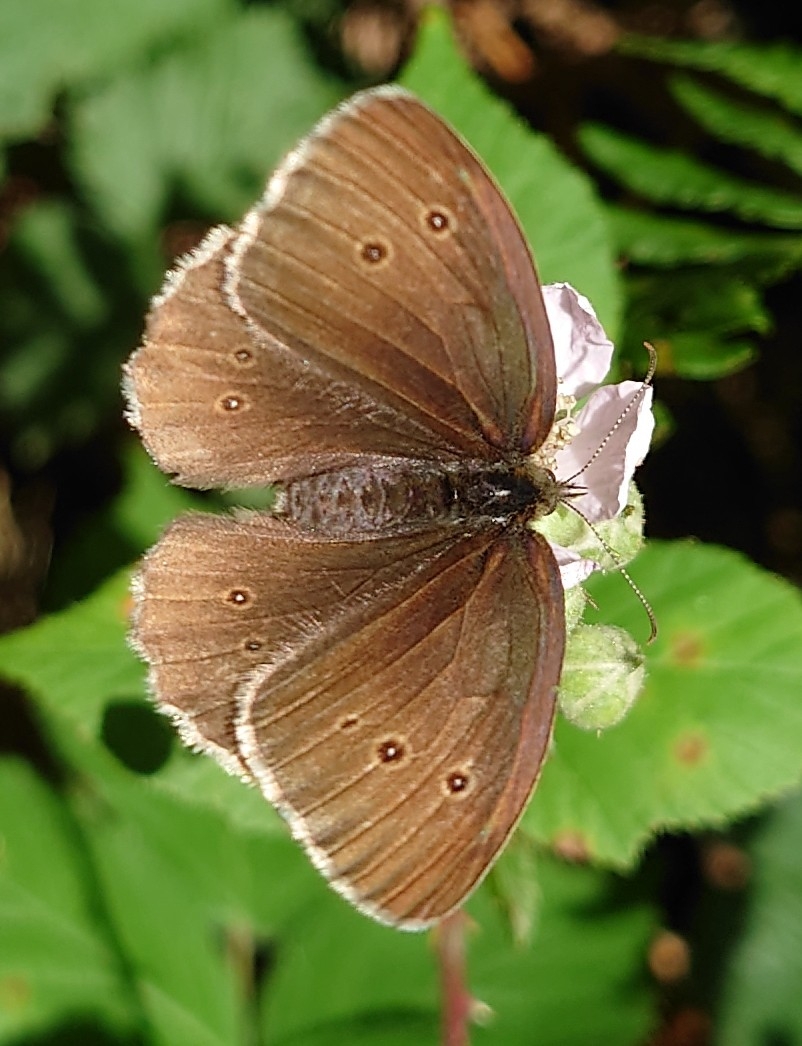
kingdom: Animalia
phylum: Arthropoda
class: Insecta
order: Lepidoptera
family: Nymphalidae
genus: Aphantopus
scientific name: Aphantopus hyperantus
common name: Engrandøje
